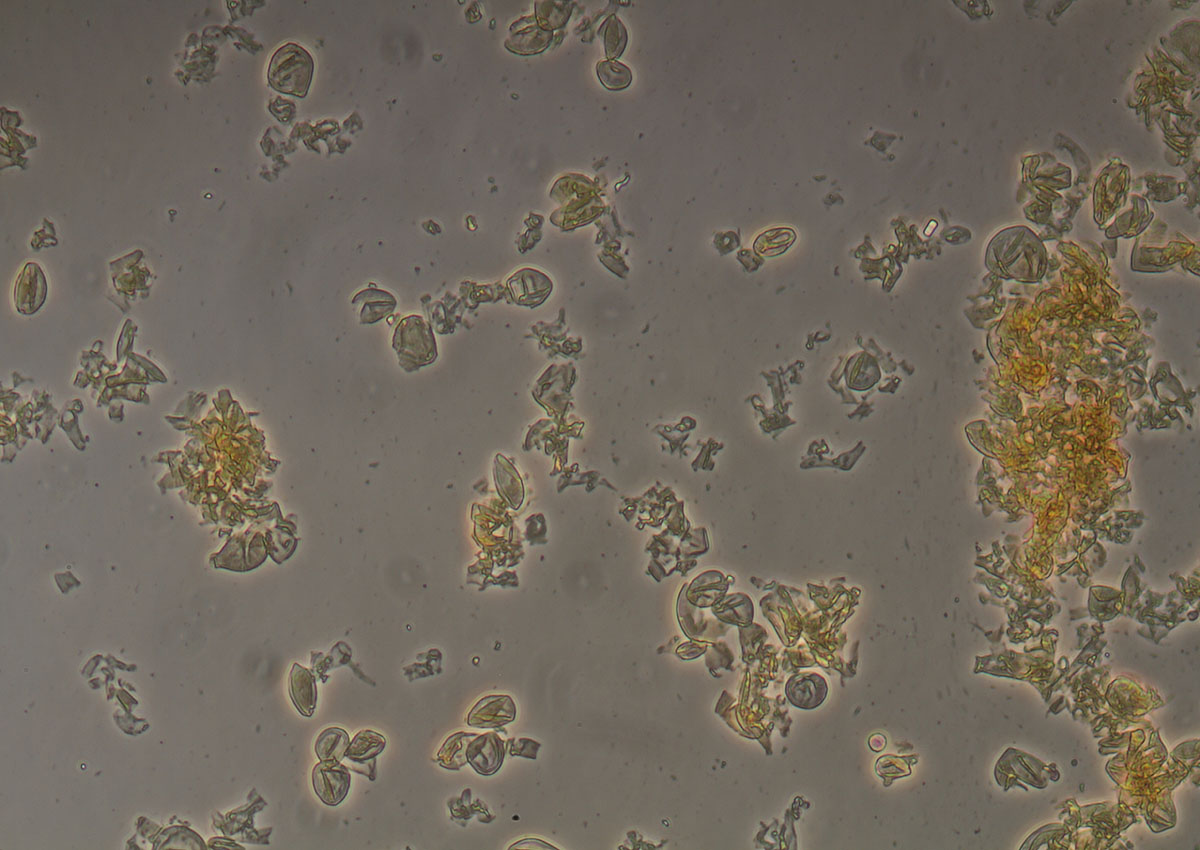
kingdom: Fungi
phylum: Basidiomycota
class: Agaricomycetes
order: Agaricales
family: Tricholomataceae
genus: Cystoderma
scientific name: Cystoderma amianthinum
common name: okkergul grynhat
